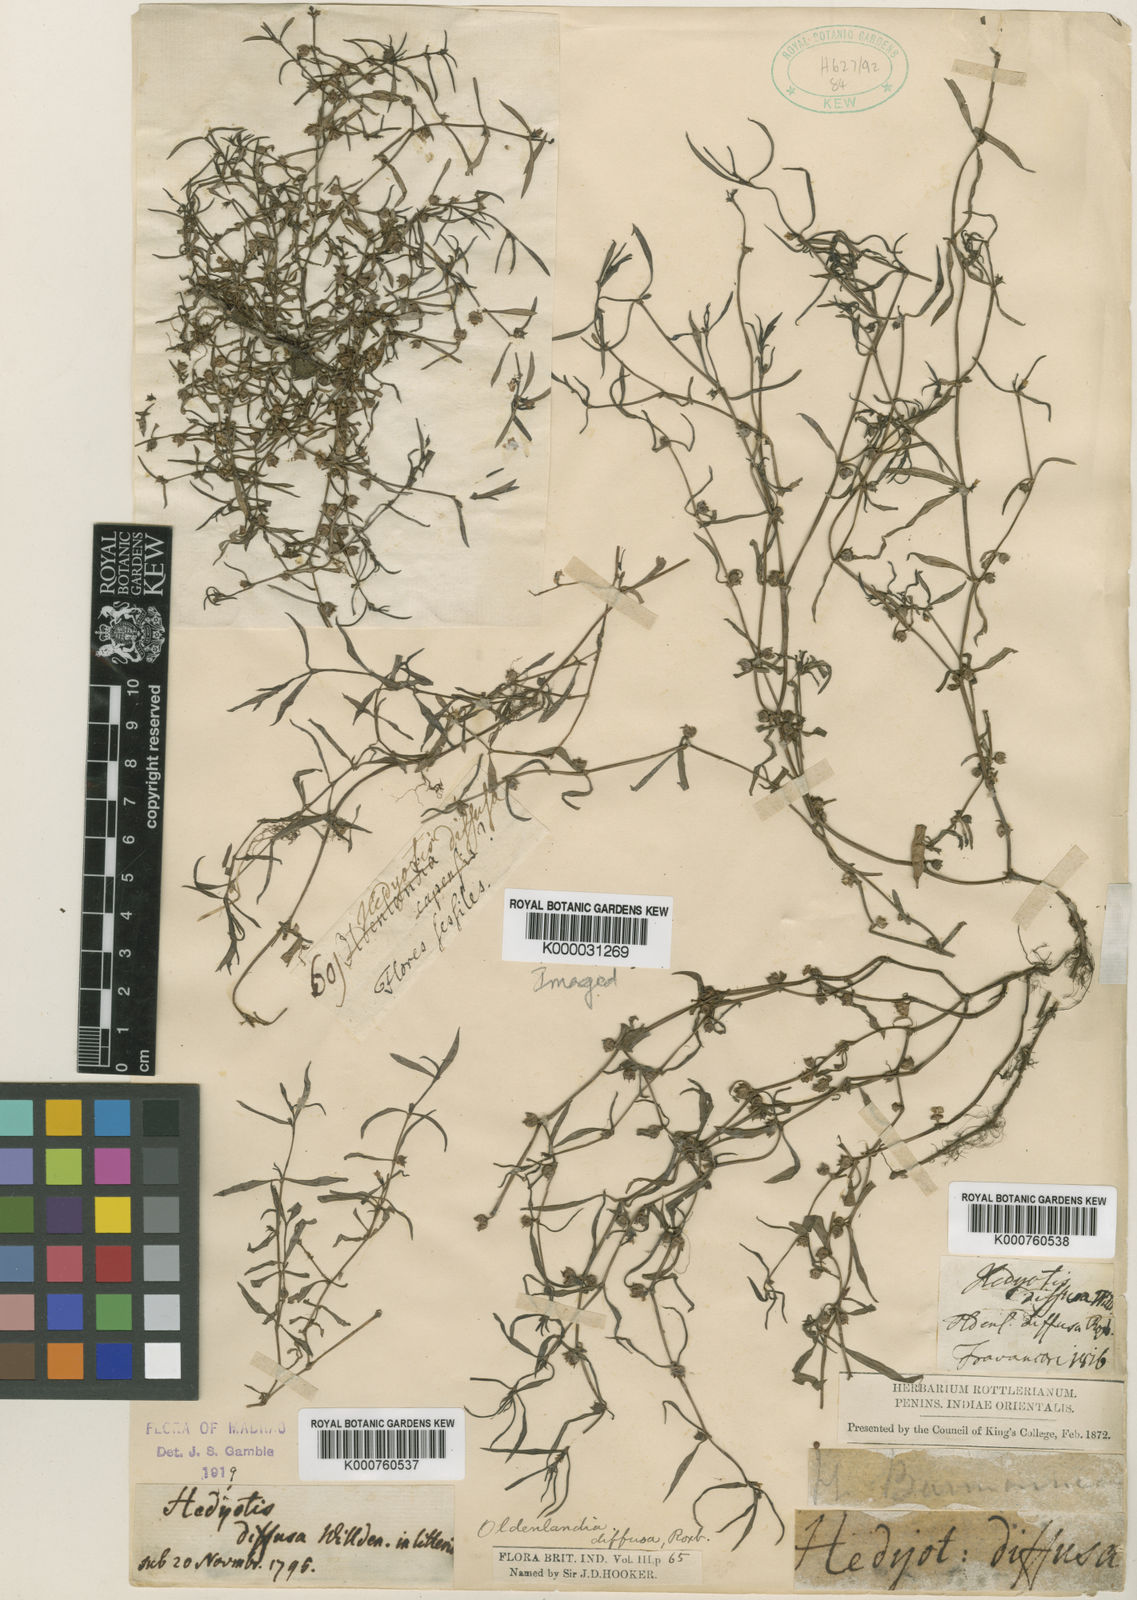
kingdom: Plantae
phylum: Tracheophyta
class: Magnoliopsida
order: Gentianales
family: Rubiaceae
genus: Scleromitrion
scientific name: Scleromitrion brachypodum
